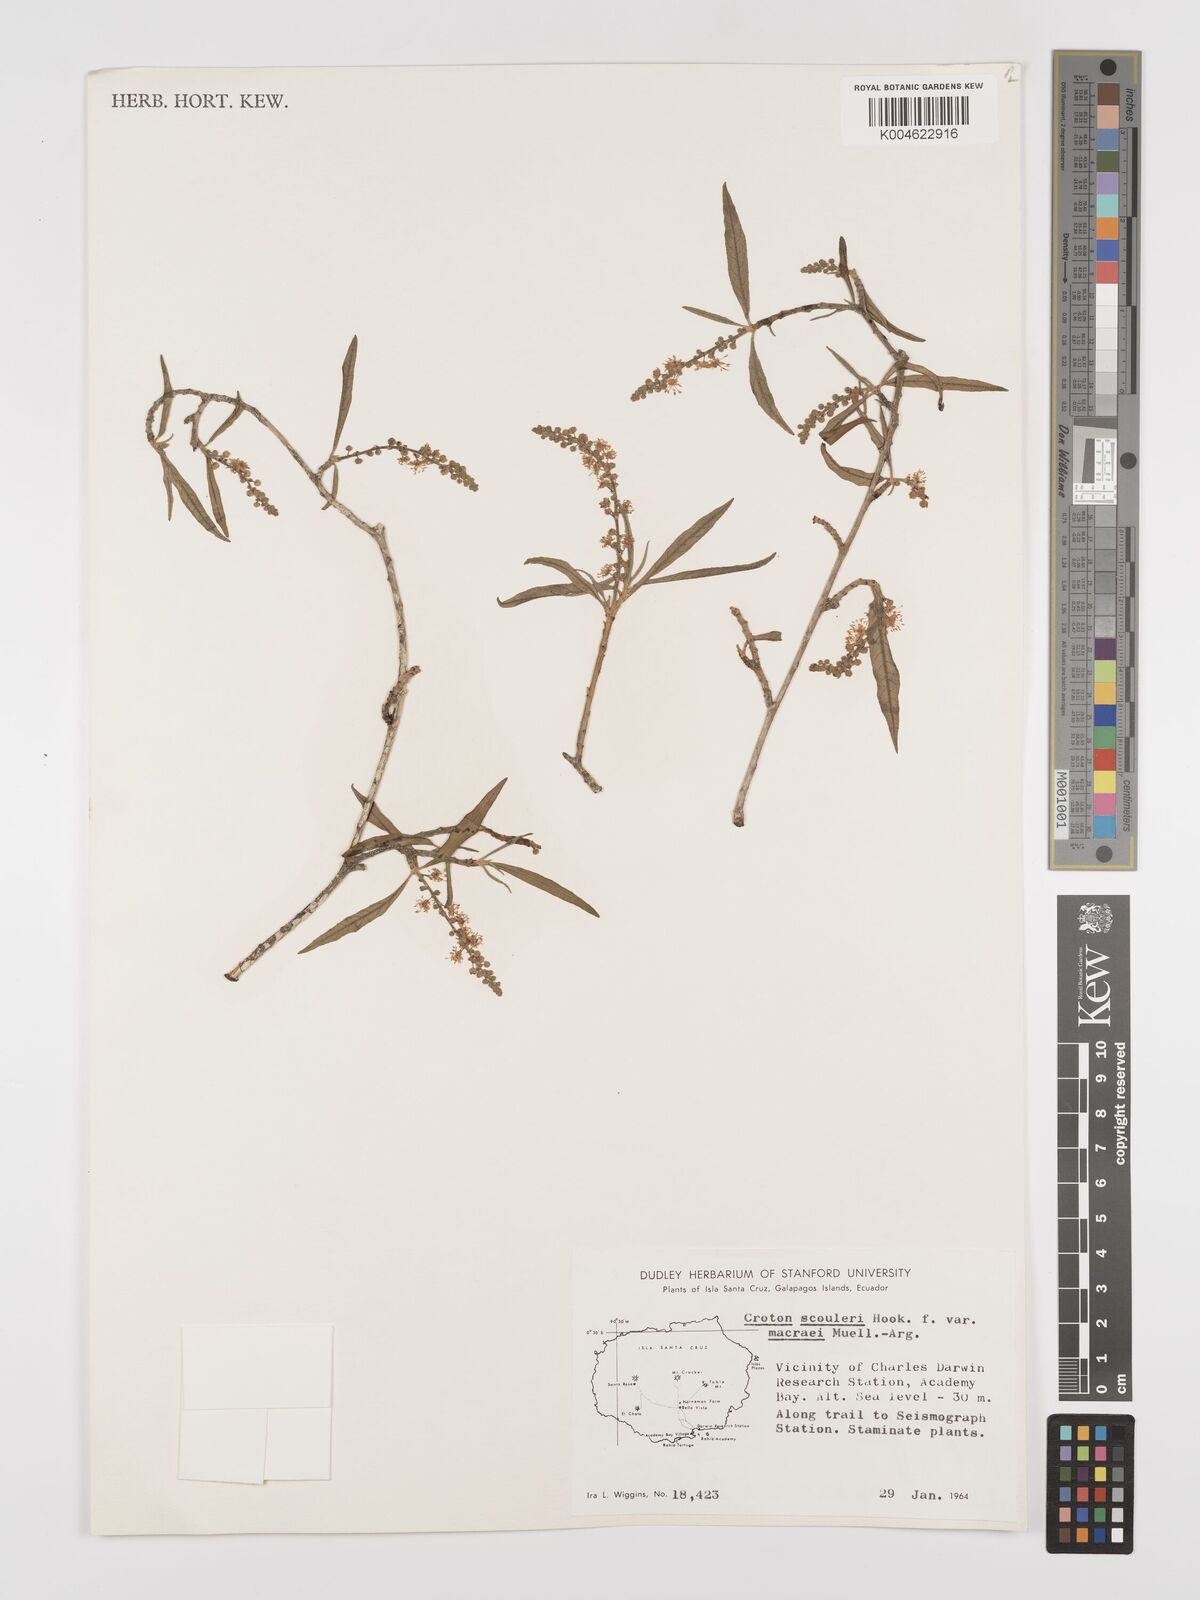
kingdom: Plantae
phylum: Tracheophyta
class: Magnoliopsida
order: Malpighiales
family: Euphorbiaceae
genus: Croton
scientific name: Croton scouleri
